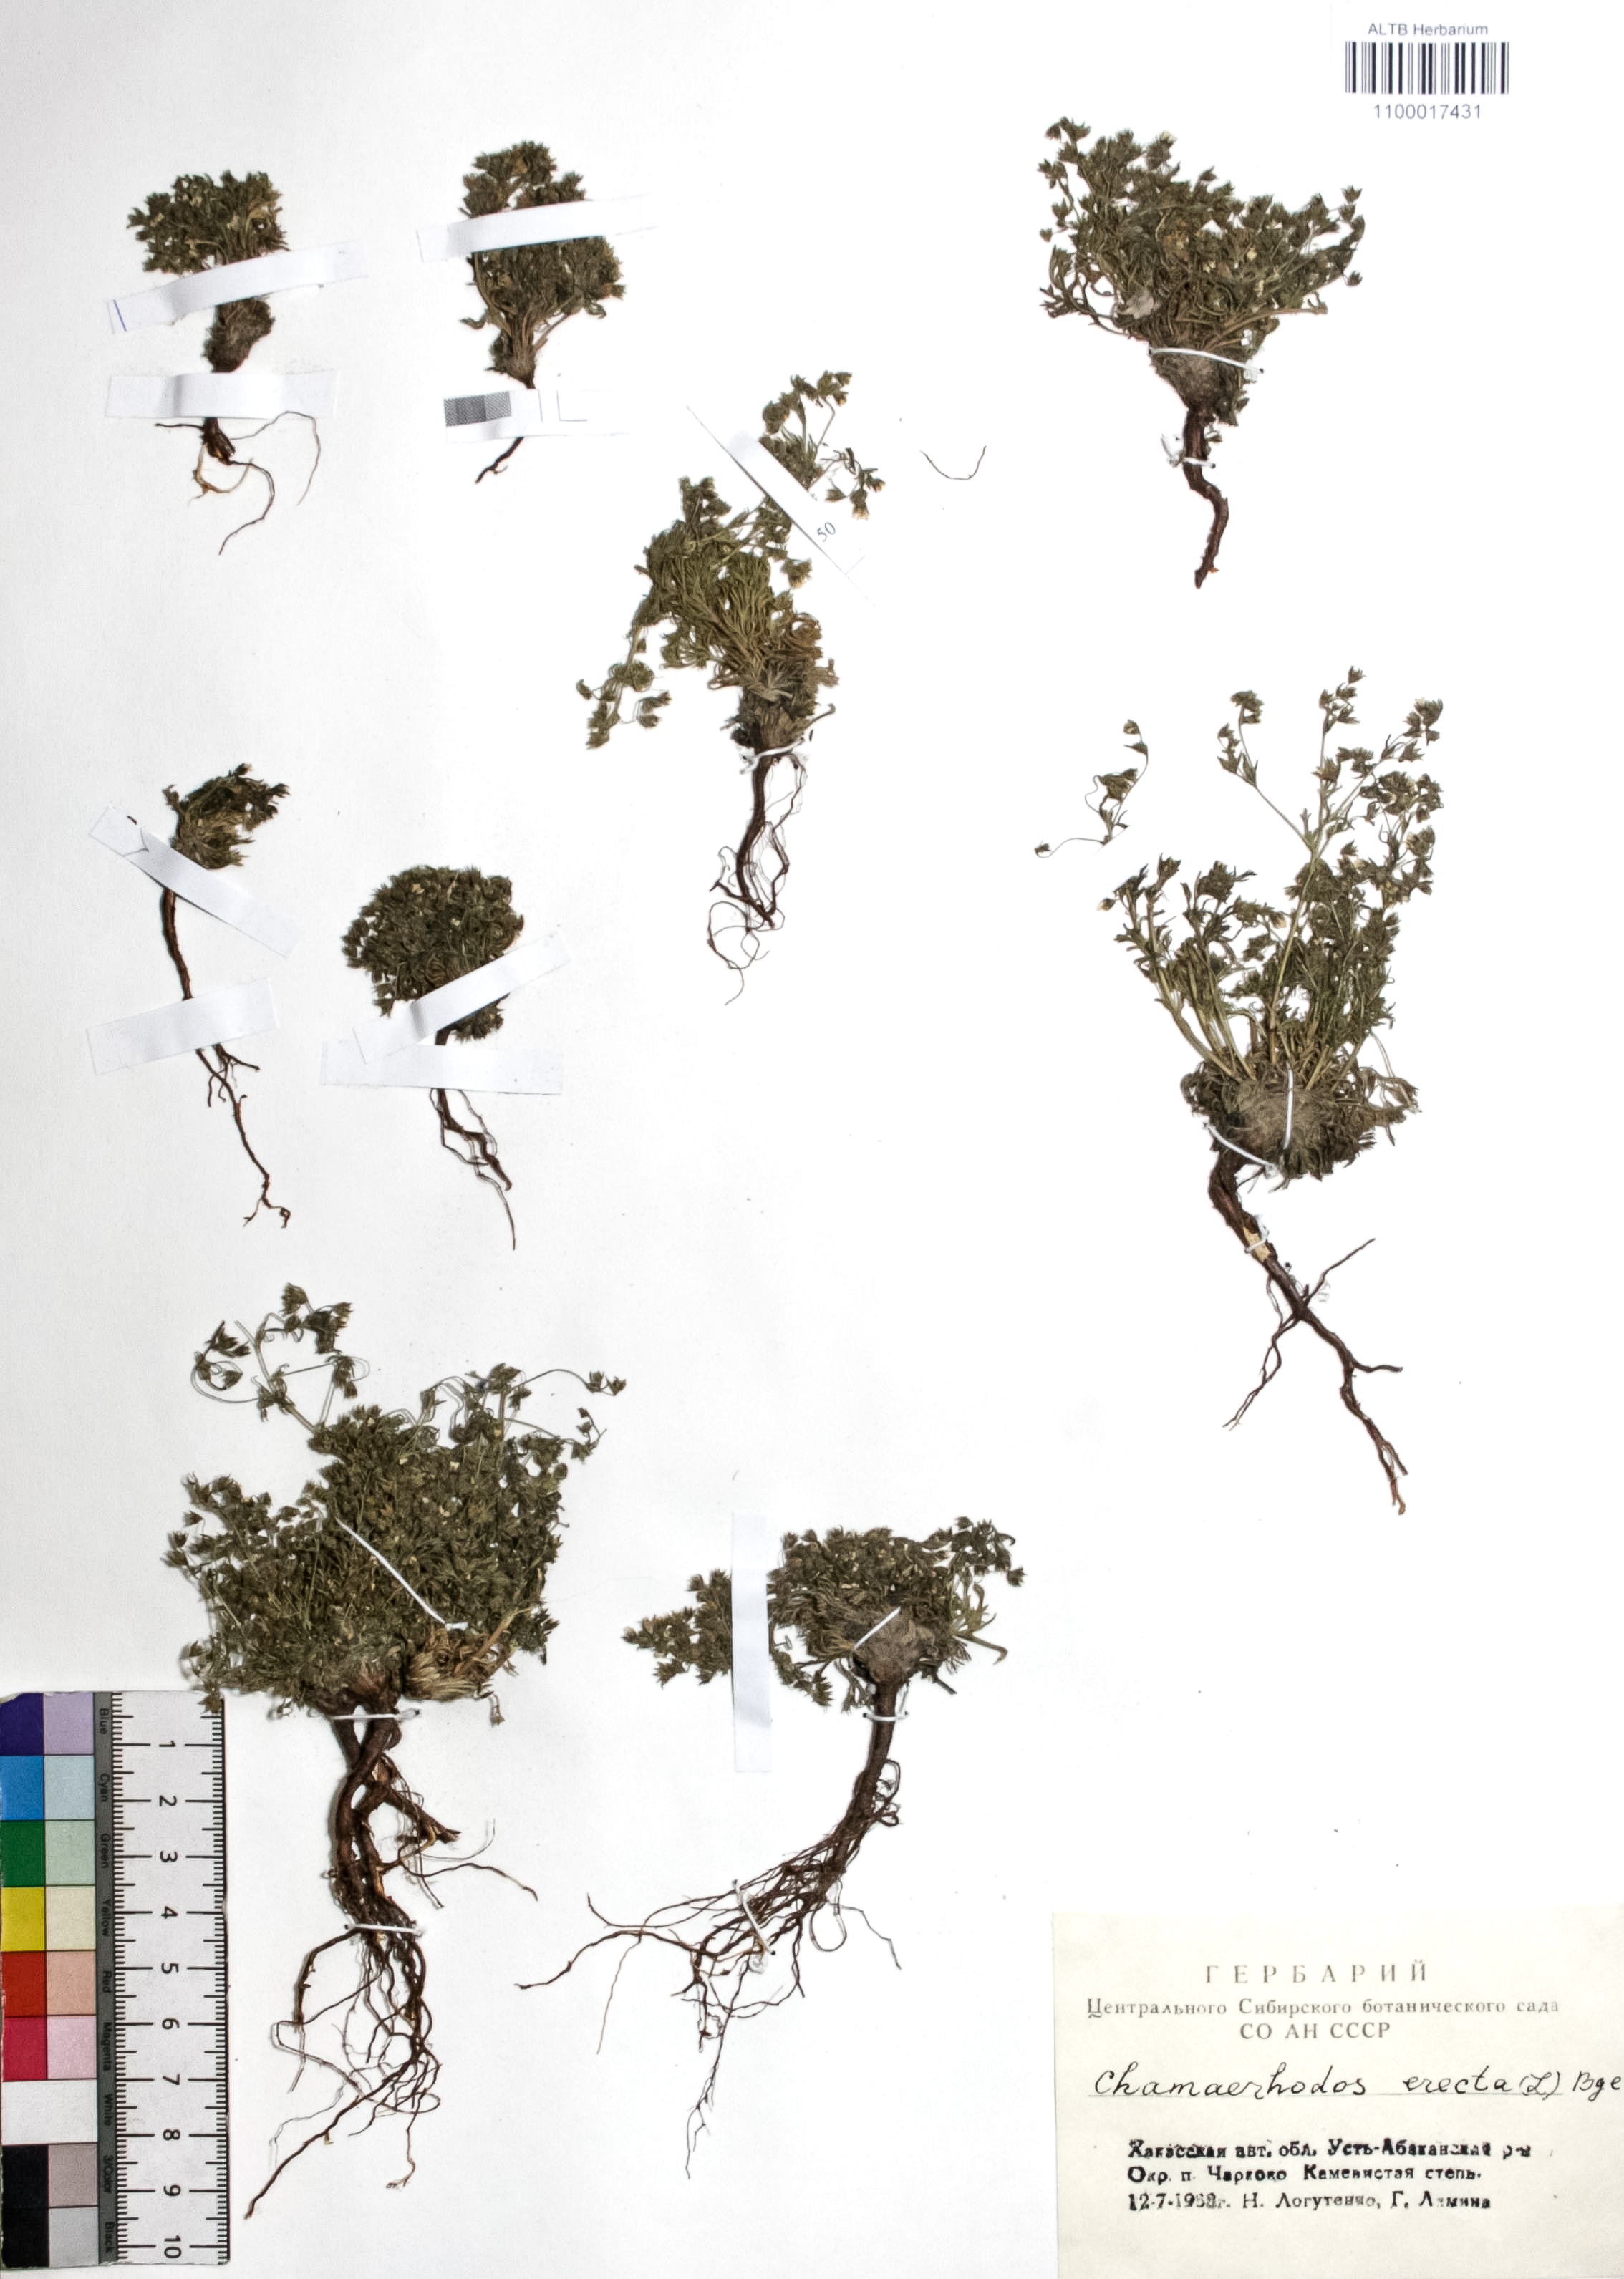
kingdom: Plantae
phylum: Tracheophyta
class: Magnoliopsida
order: Rosales
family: Rosaceae
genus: Chamaerhodos
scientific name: Chamaerhodos erecta
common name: American chamaerhodos
